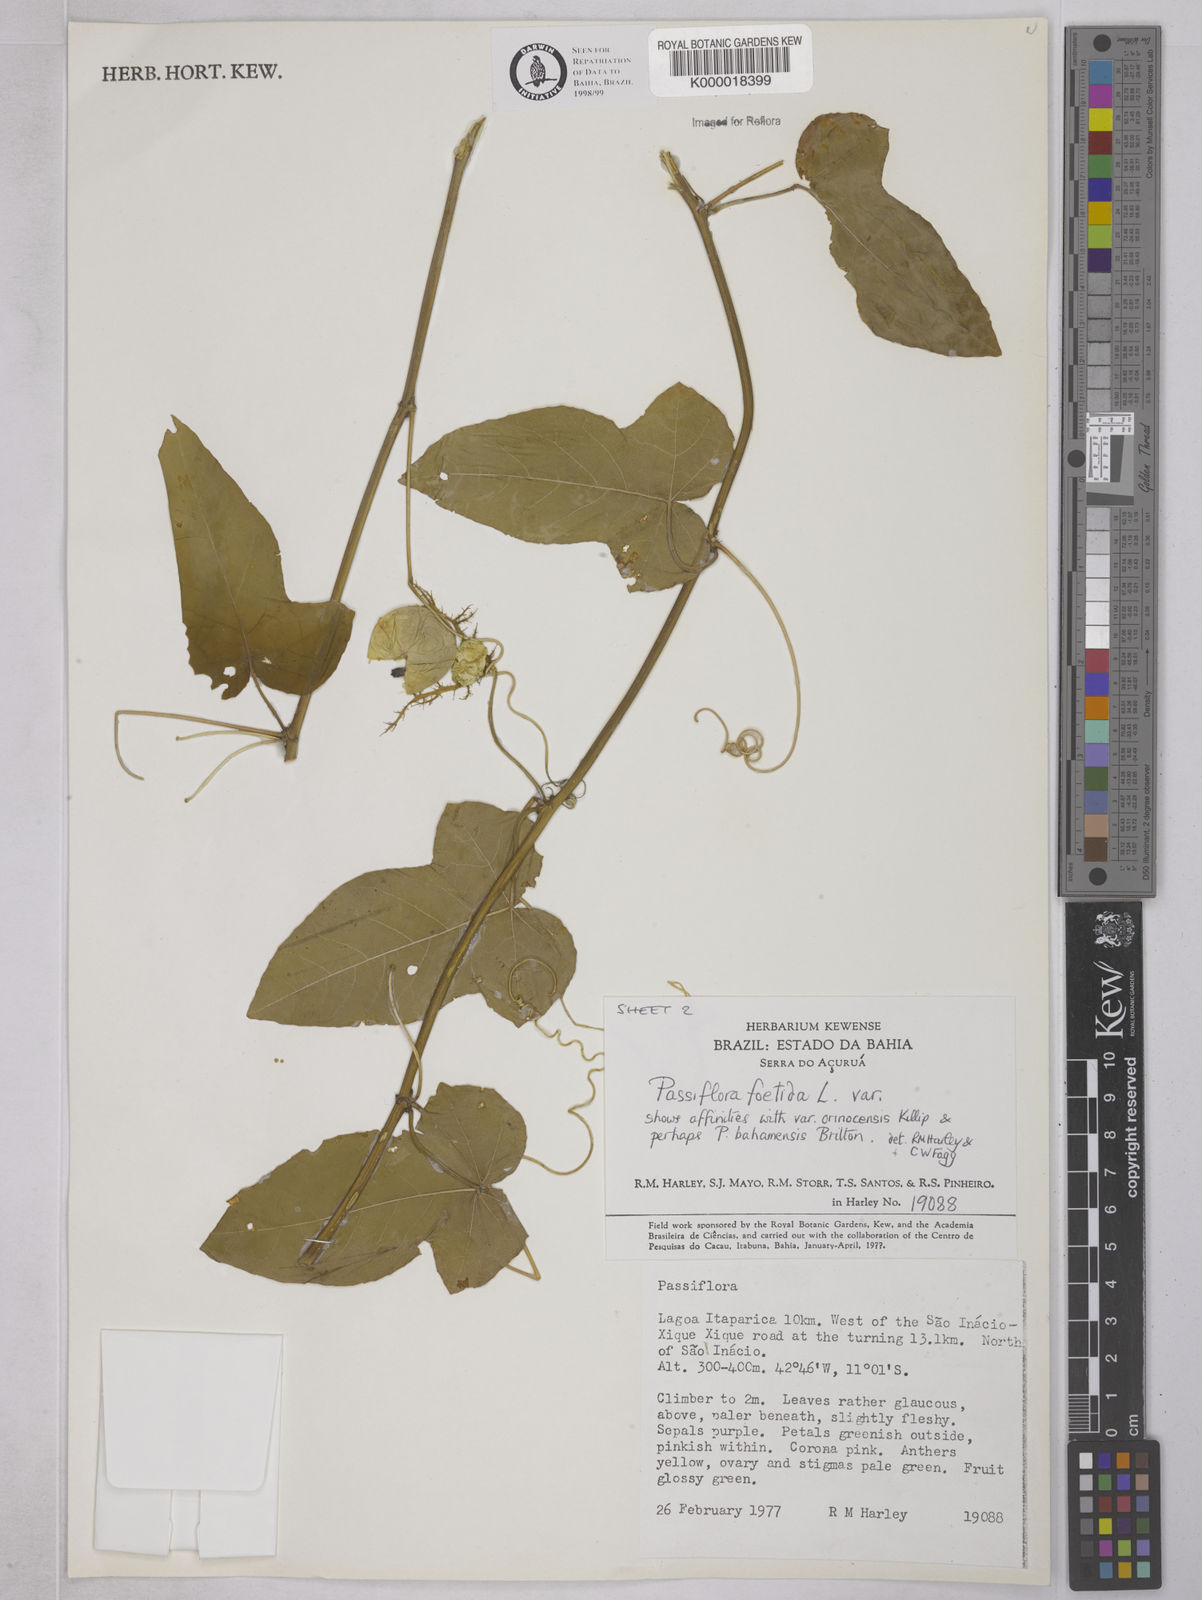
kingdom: Plantae
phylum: Tracheophyta
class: Magnoliopsida
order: Malpighiales
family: Passifloraceae
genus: Passiflora
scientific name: Passiflora ciliata
